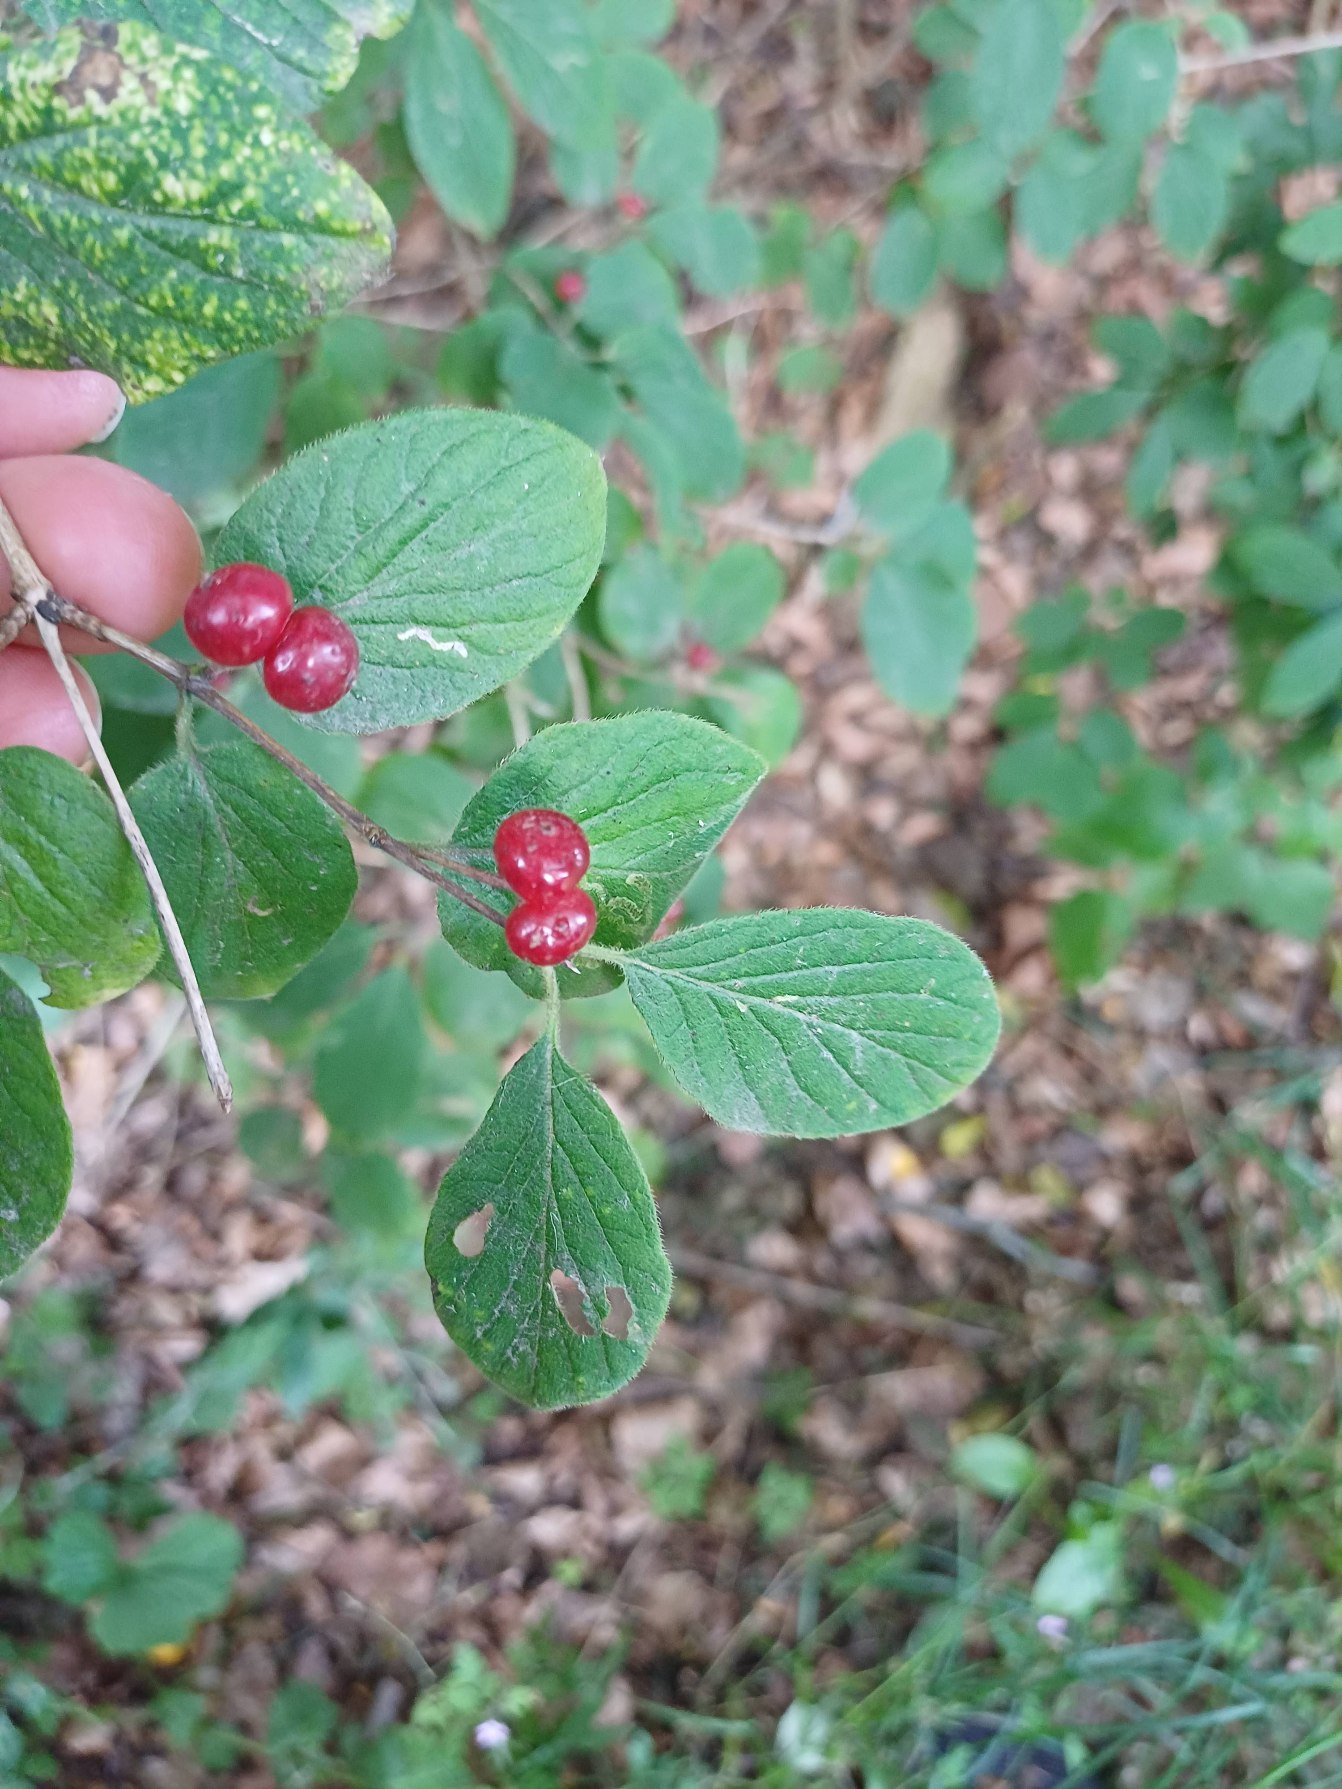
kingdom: Plantae
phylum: Tracheophyta
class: Magnoliopsida
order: Dipsacales
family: Caprifoliaceae
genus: Lonicera
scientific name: Lonicera xylosteum
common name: Dunet gedeblad
